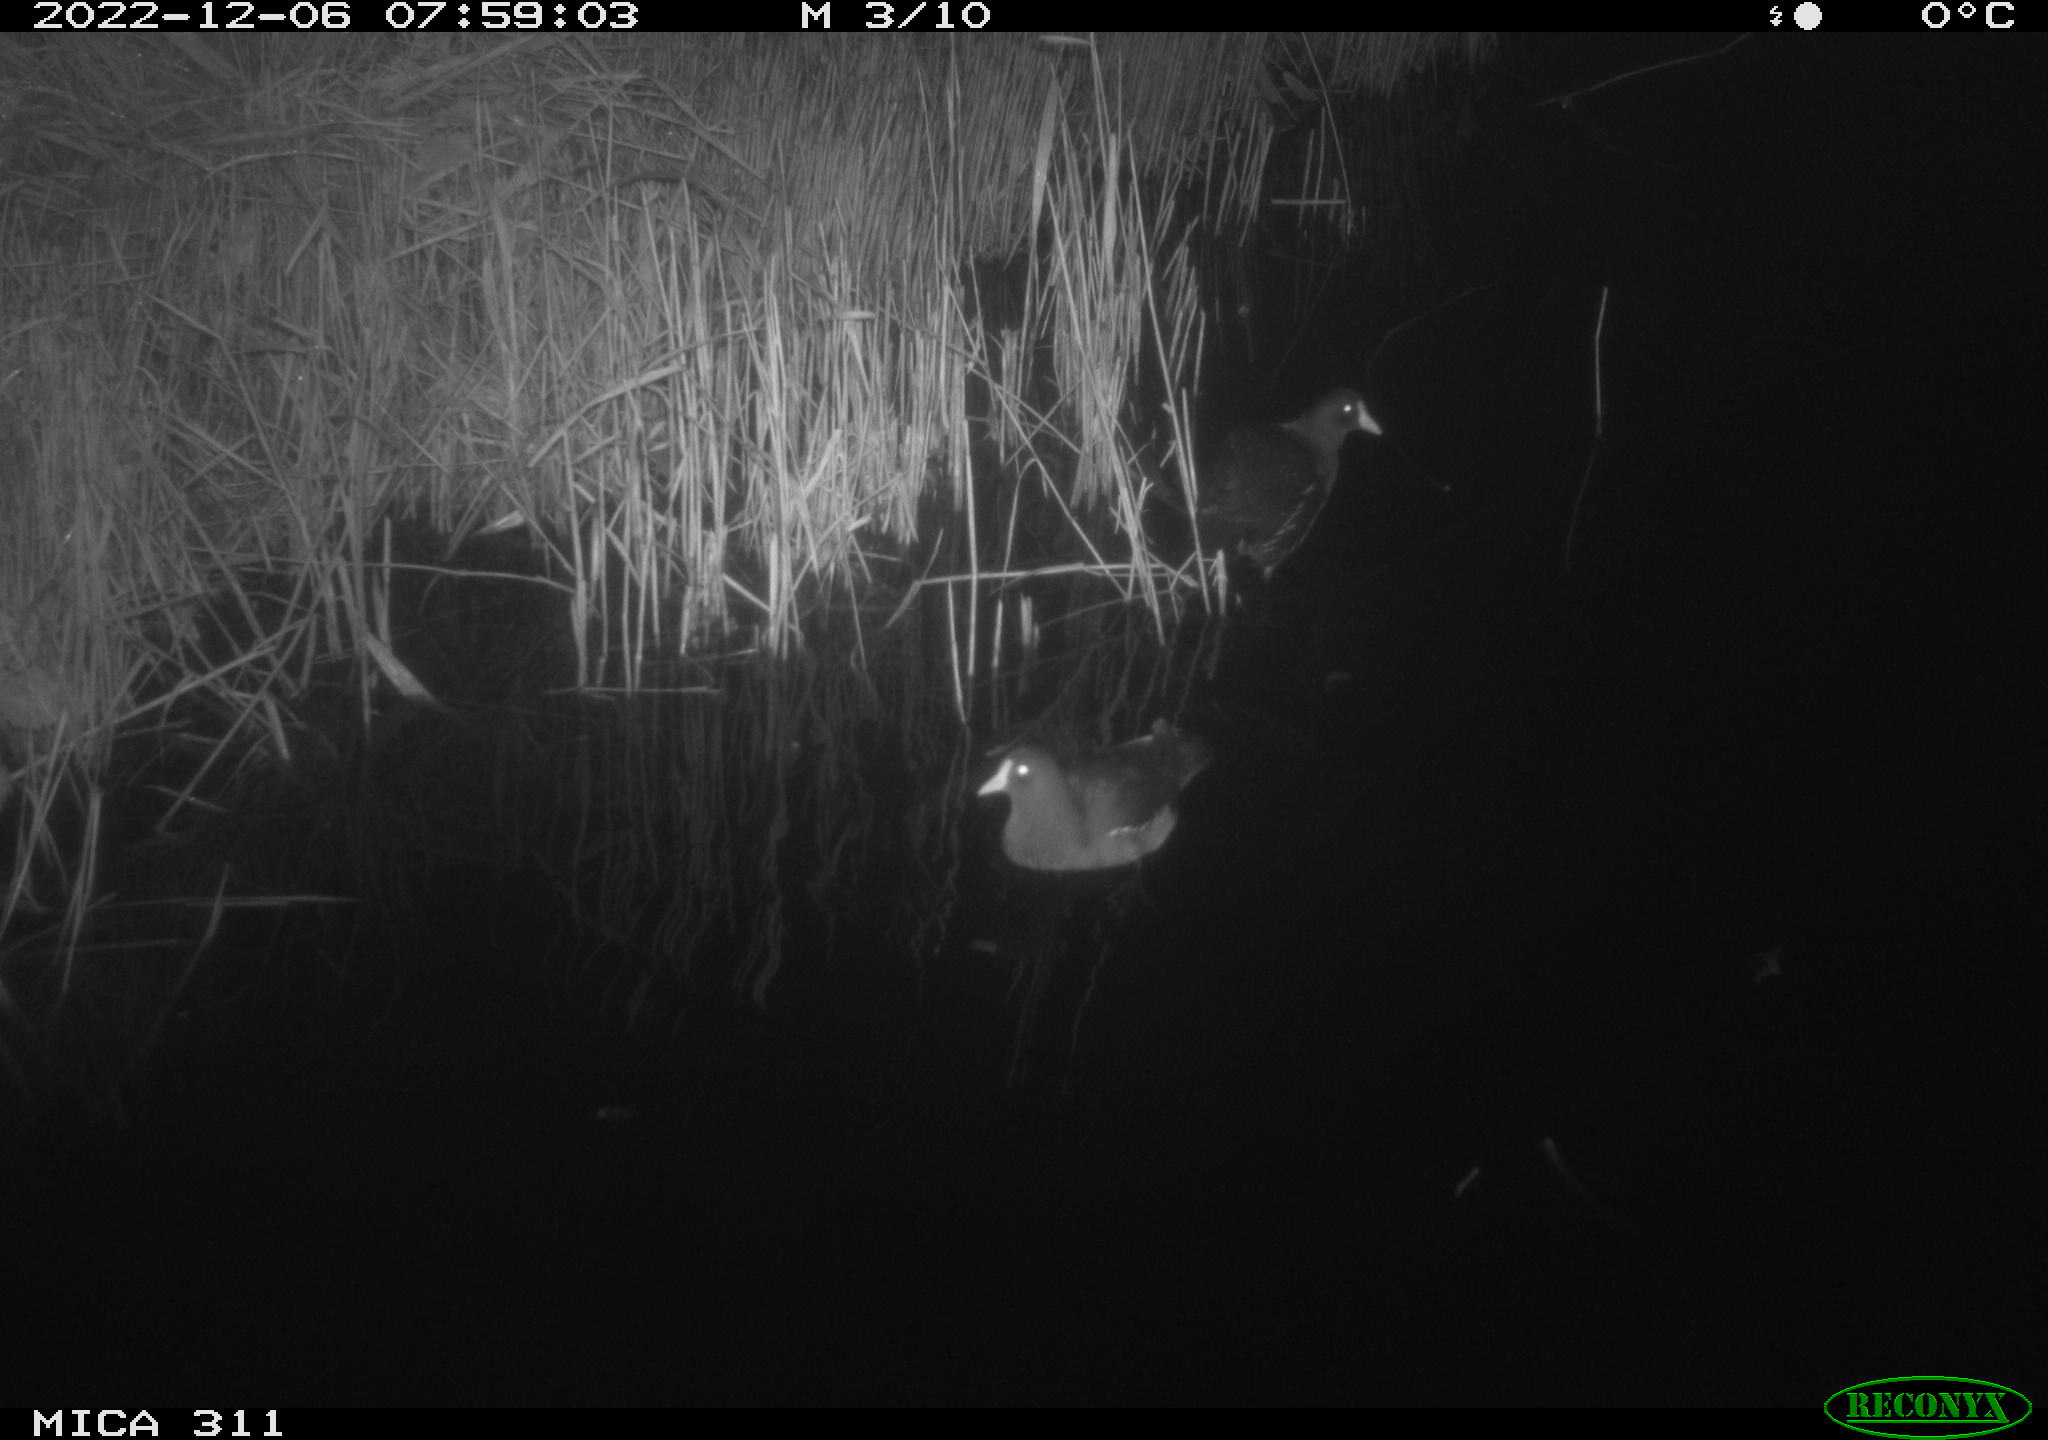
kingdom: Animalia
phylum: Chordata
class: Aves
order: Gruiformes
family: Rallidae
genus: Fulica
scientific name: Fulica atra
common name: Eurasian coot
